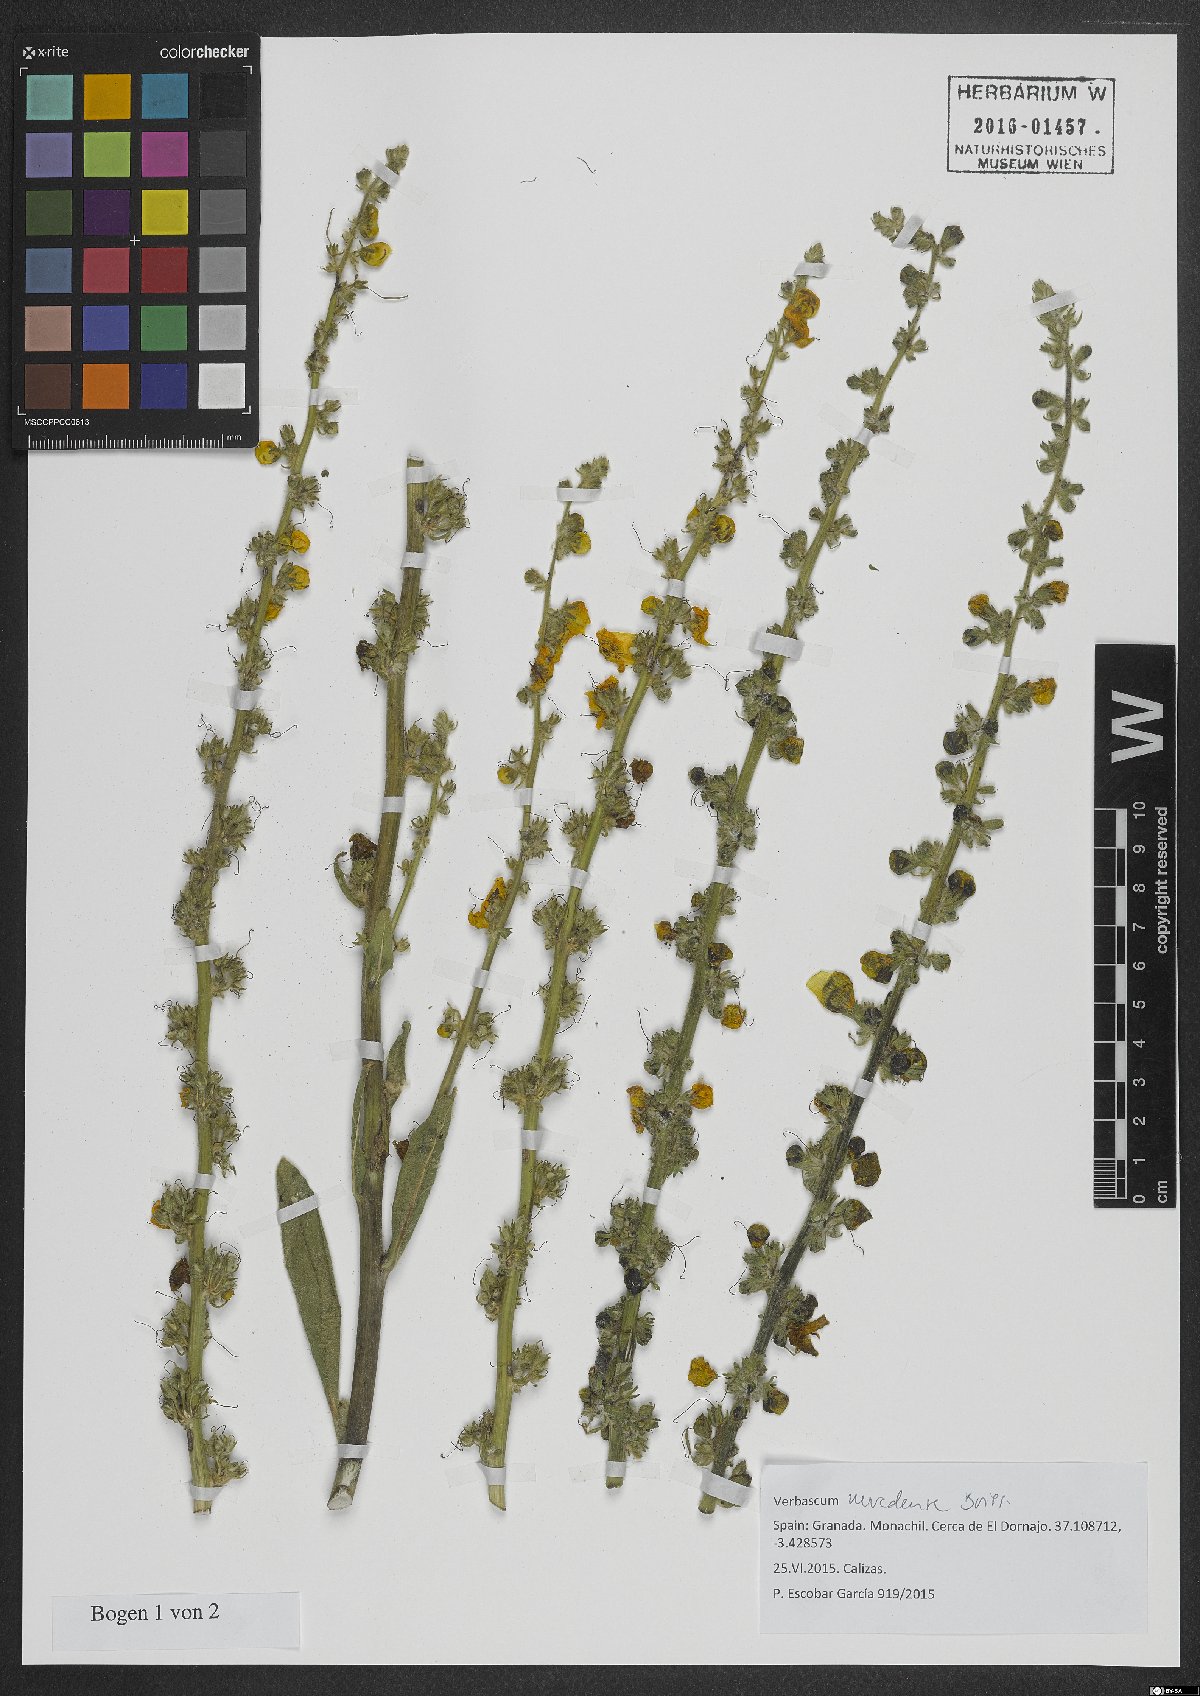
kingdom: Plantae
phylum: Tracheophyta
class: Magnoliopsida
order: Lamiales
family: Scrophulariaceae
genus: Verbascum
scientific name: Verbascum nevadense
